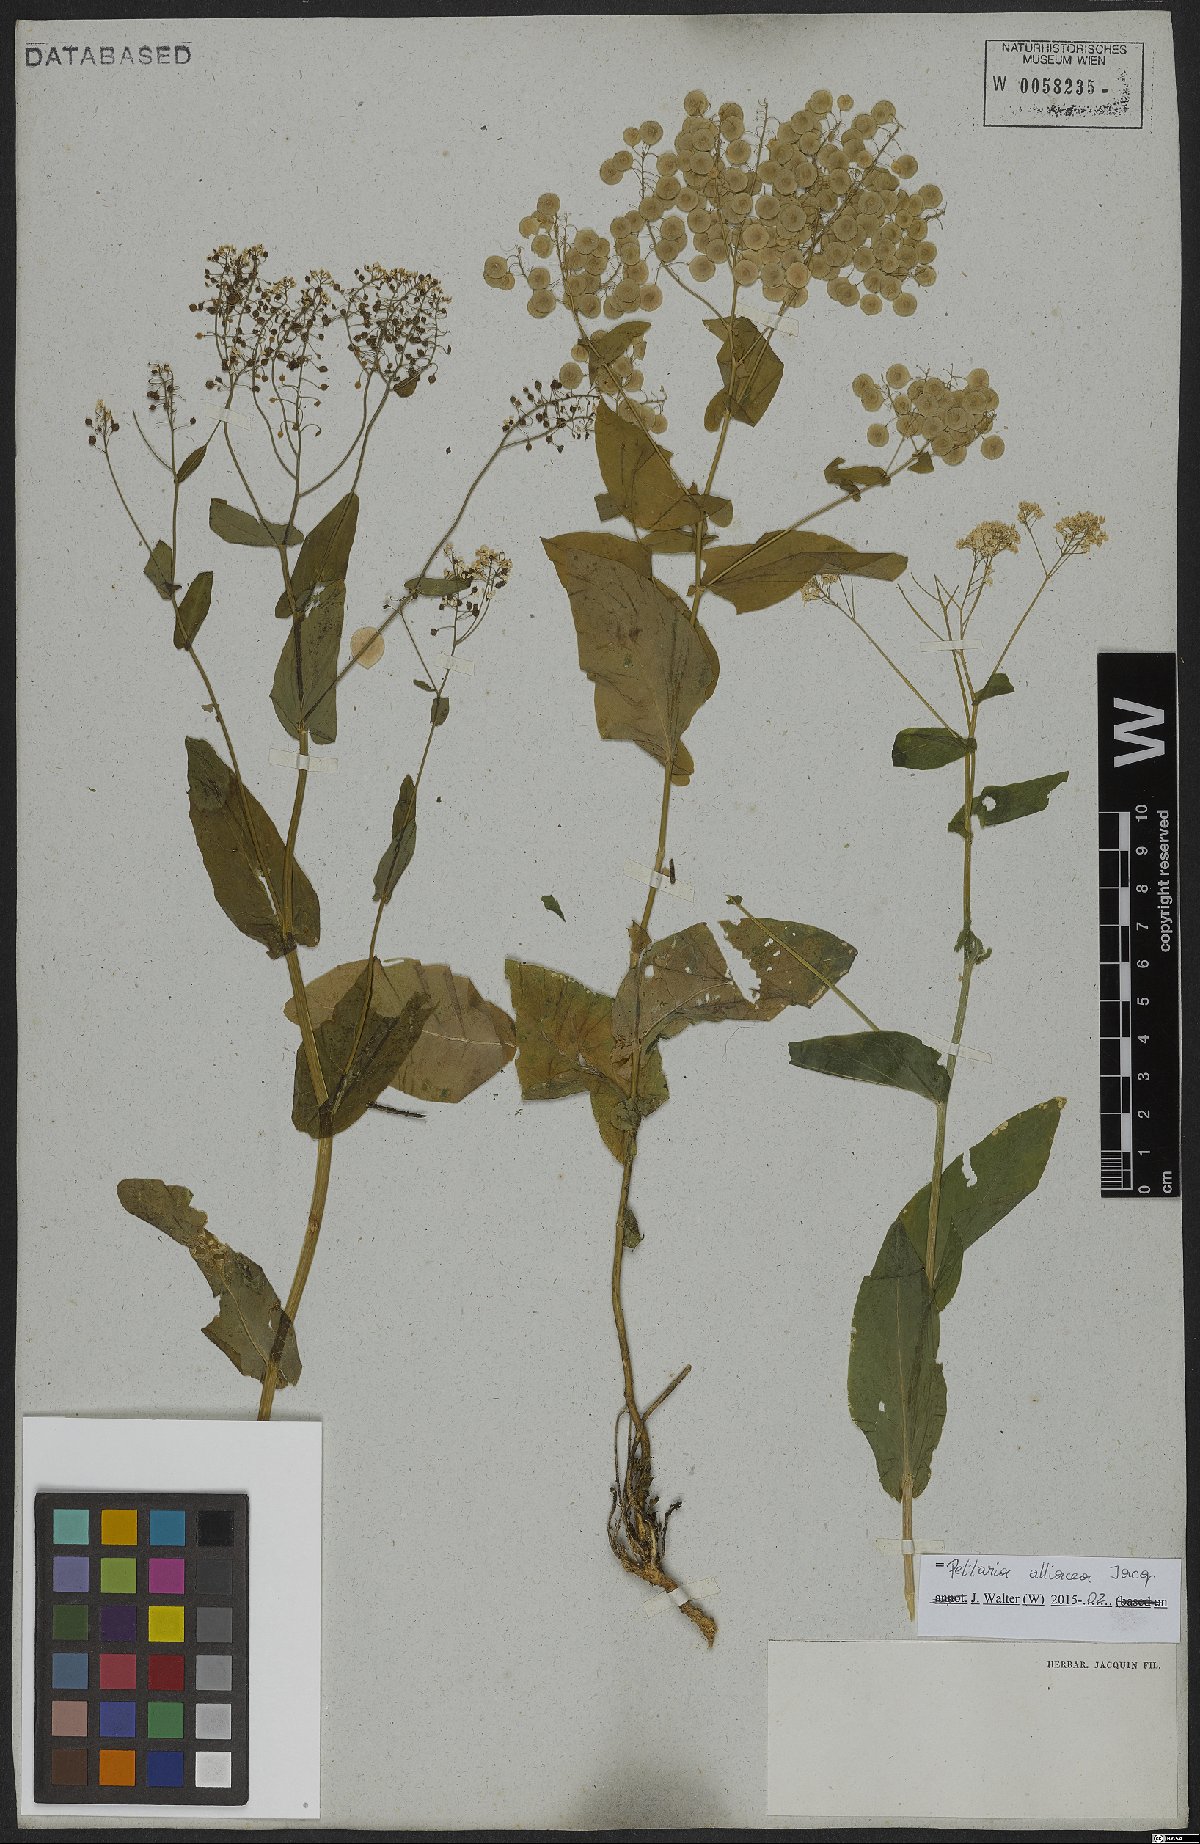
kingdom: Plantae
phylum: Tracheophyta
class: Magnoliopsida
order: Brassicales
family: Brassicaceae
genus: Peltaria
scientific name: Peltaria alliacea
